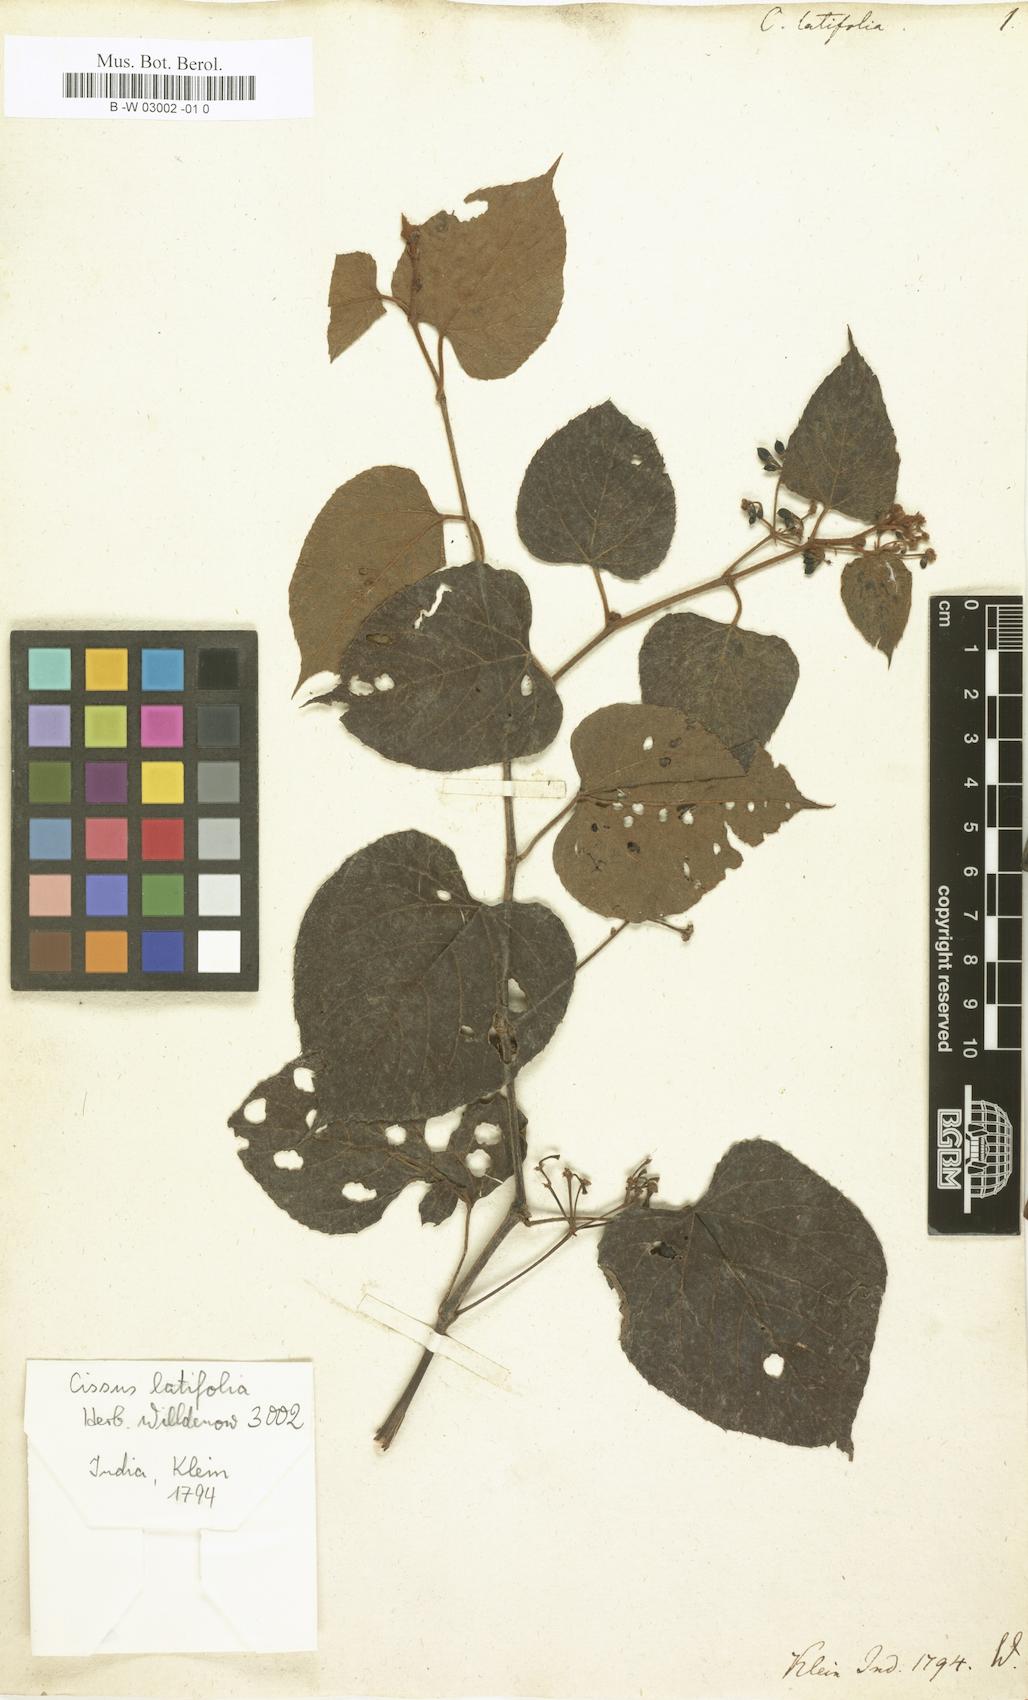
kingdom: Plantae
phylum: Tracheophyta
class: Magnoliopsida
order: Vitales
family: Vitaceae
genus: Cissus
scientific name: Cissus latifolia
